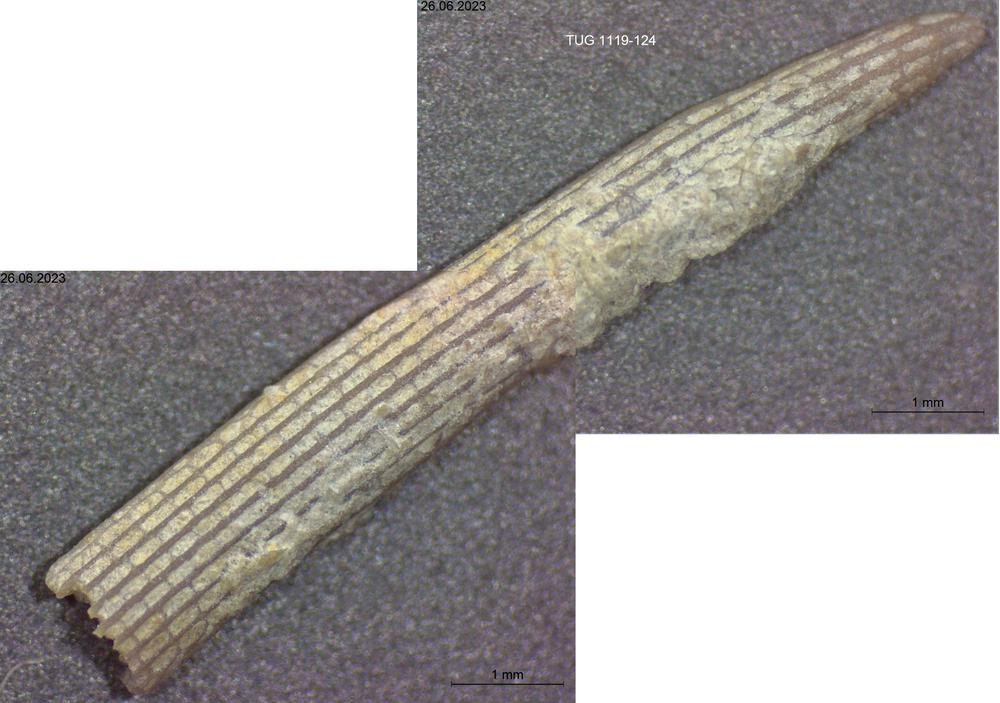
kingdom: Animalia
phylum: Bryozoa
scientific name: Bryozoa
